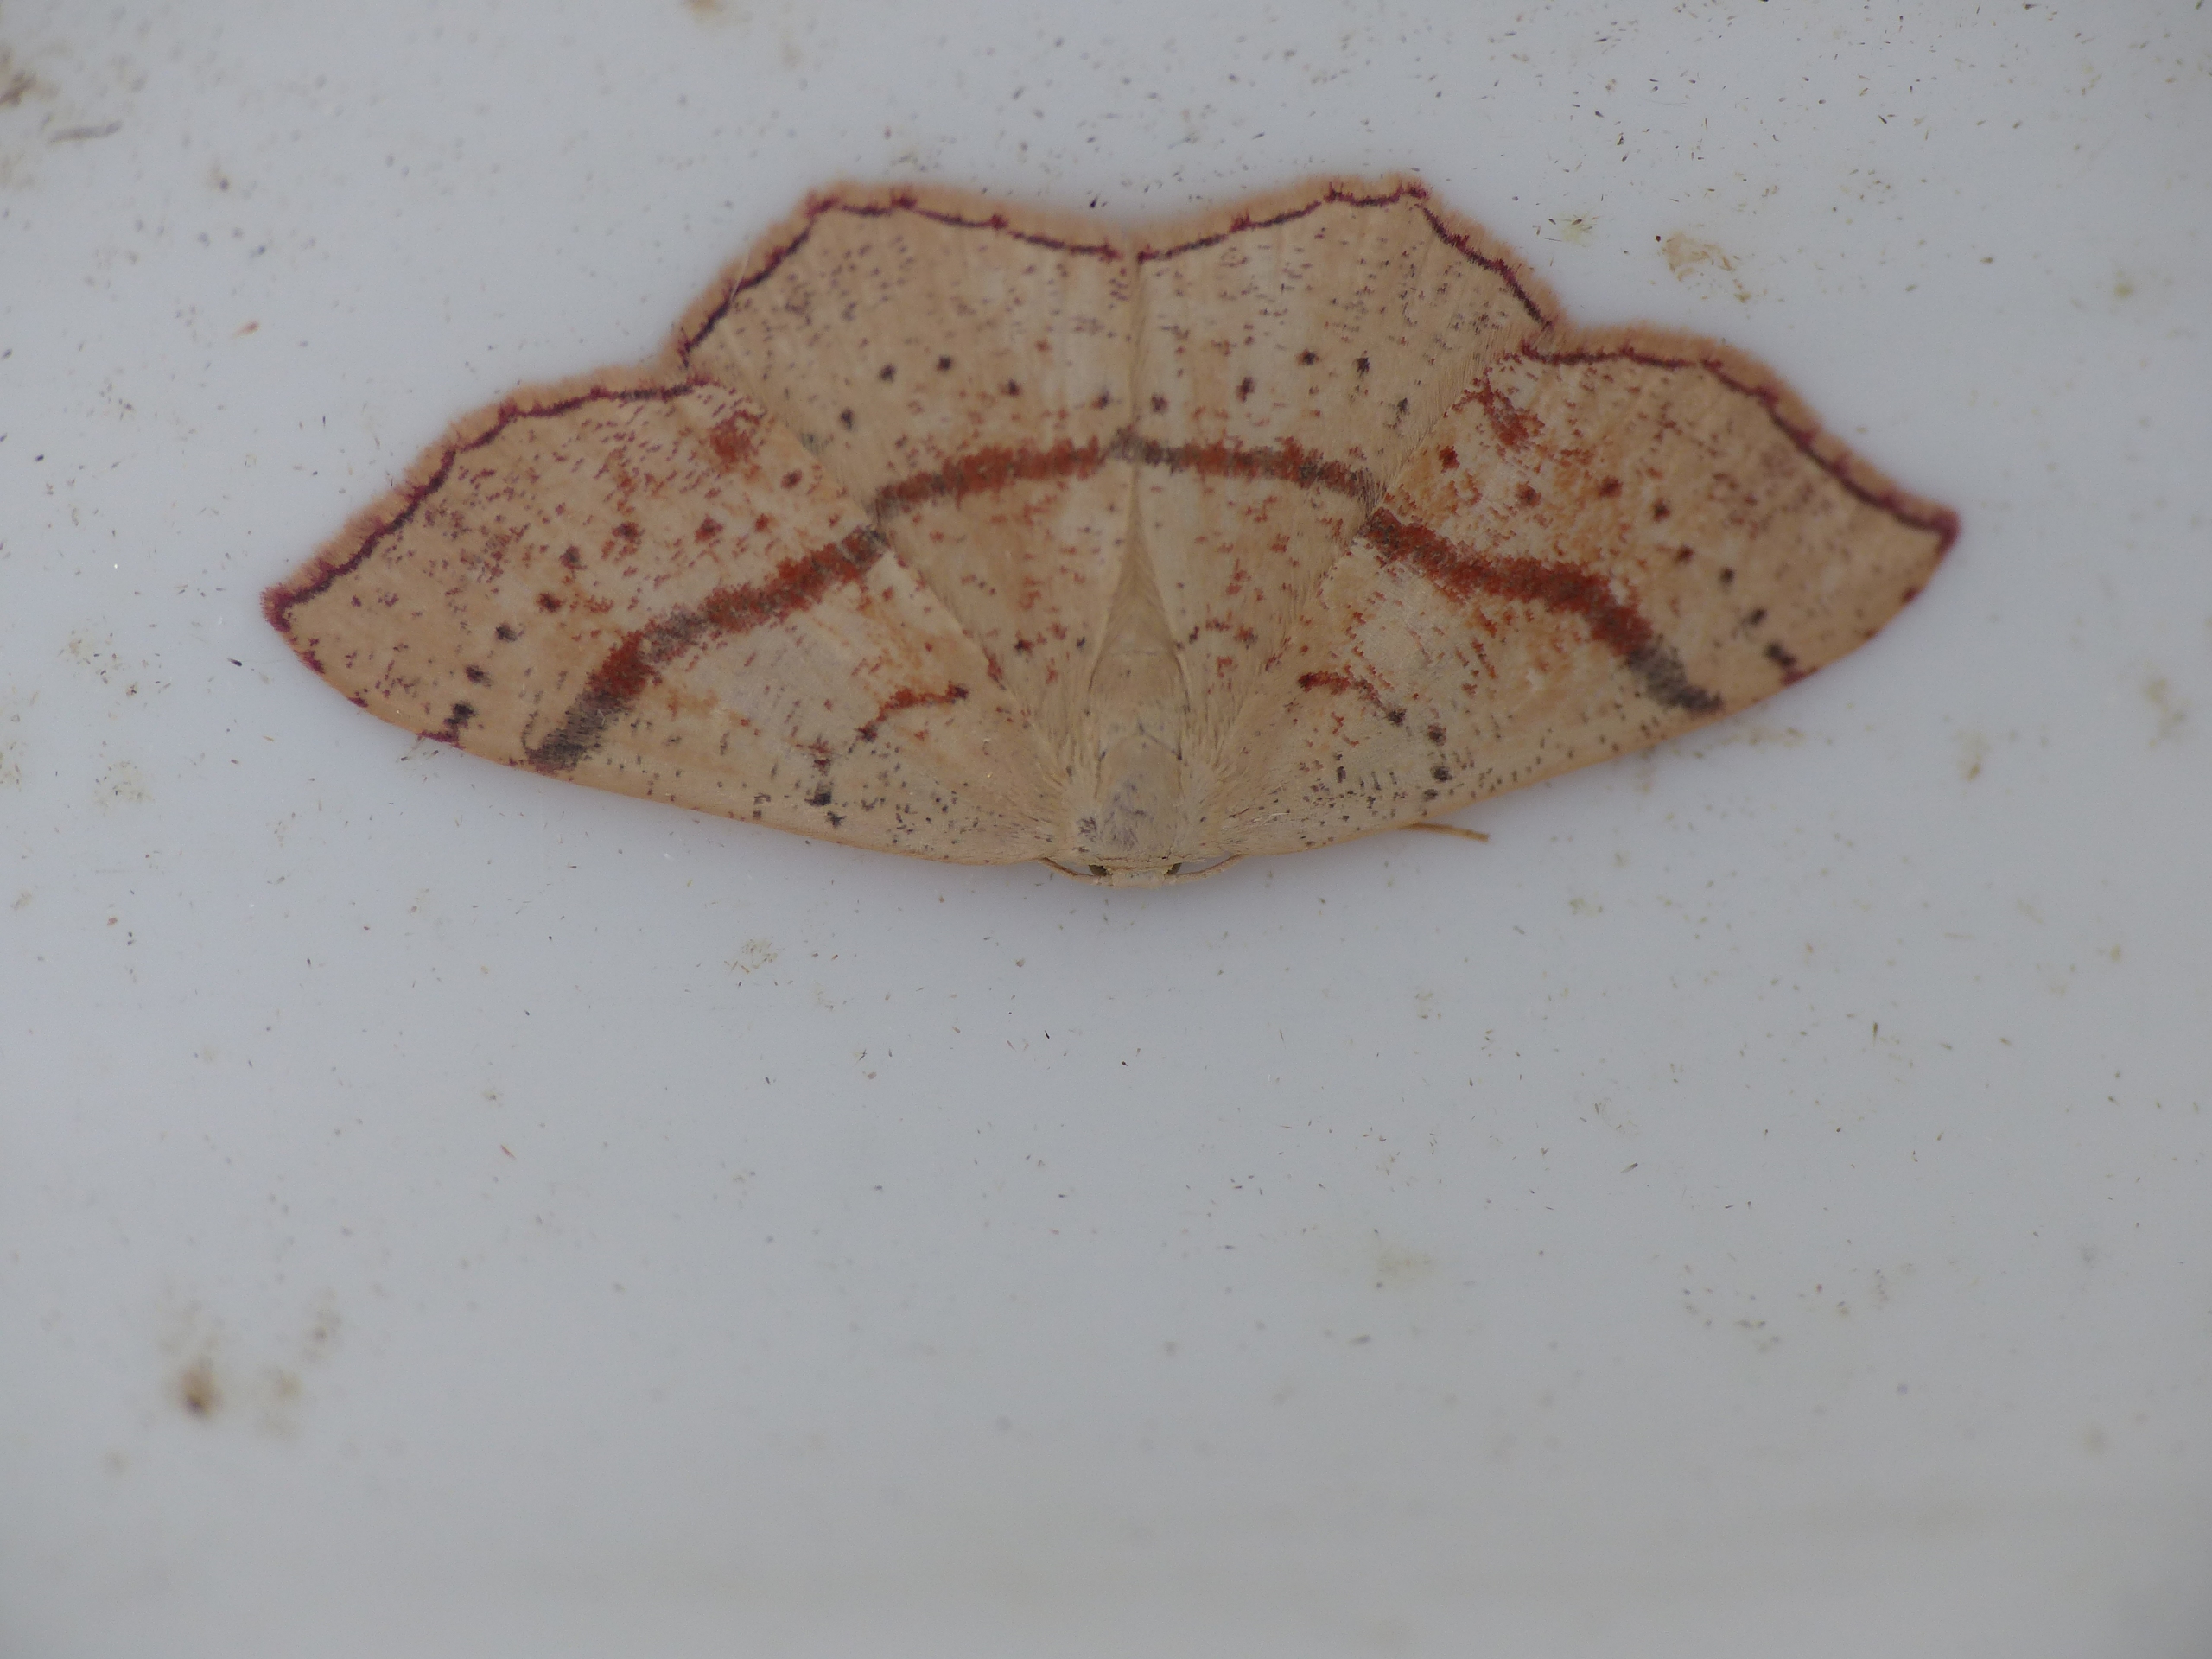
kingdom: Animalia
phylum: Arthropoda
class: Insecta
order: Lepidoptera
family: Geometridae
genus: Cyclophora
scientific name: Cyclophora punctaria
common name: Ege-bæltemåler
